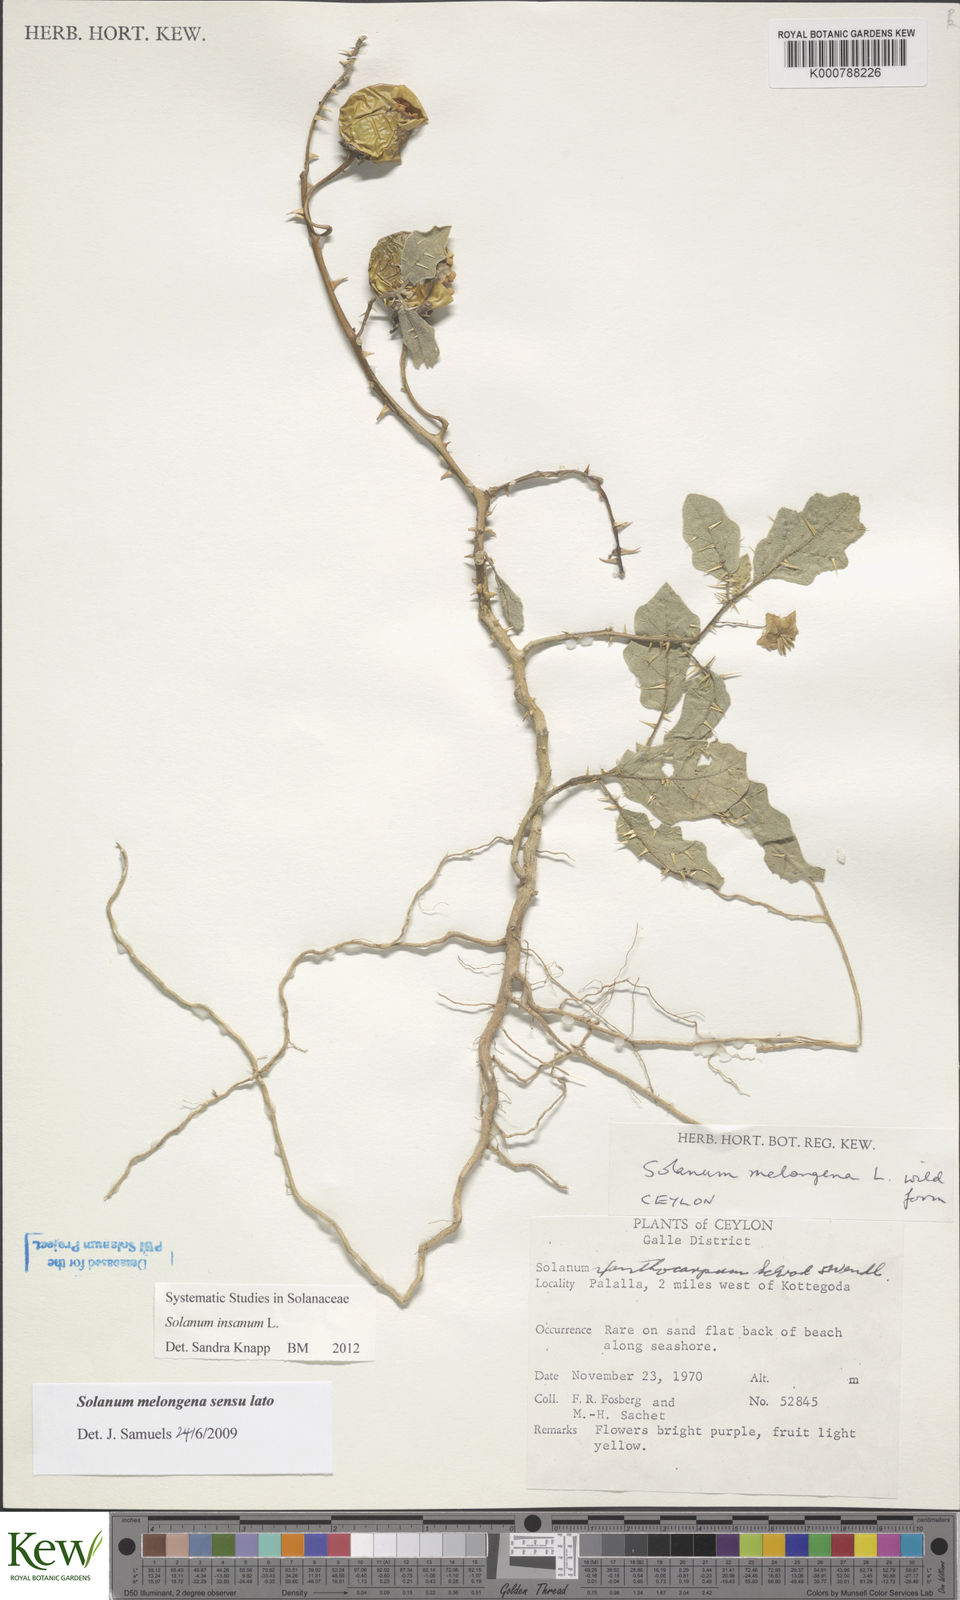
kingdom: Plantae
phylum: Tracheophyta
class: Magnoliopsida
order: Solanales
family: Solanaceae
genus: Solanum
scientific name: Solanum insanum
